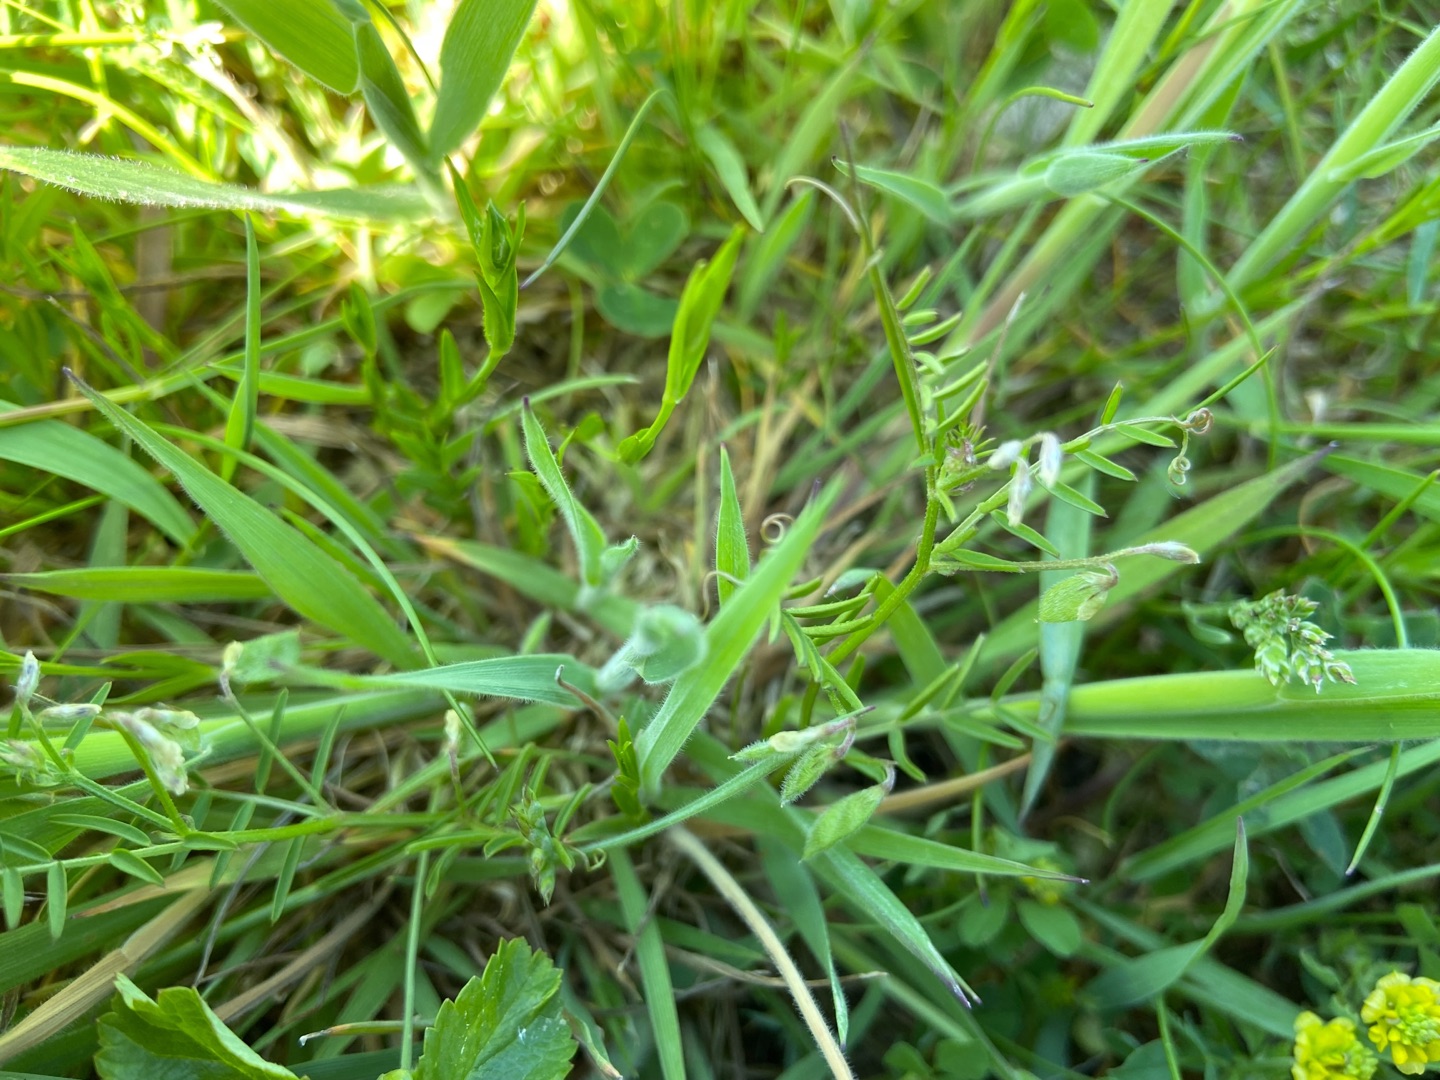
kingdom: Plantae
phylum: Tracheophyta
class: Magnoliopsida
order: Fabales
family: Fabaceae
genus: Vicia
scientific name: Vicia hirsuta
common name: Tofrøet vikke
